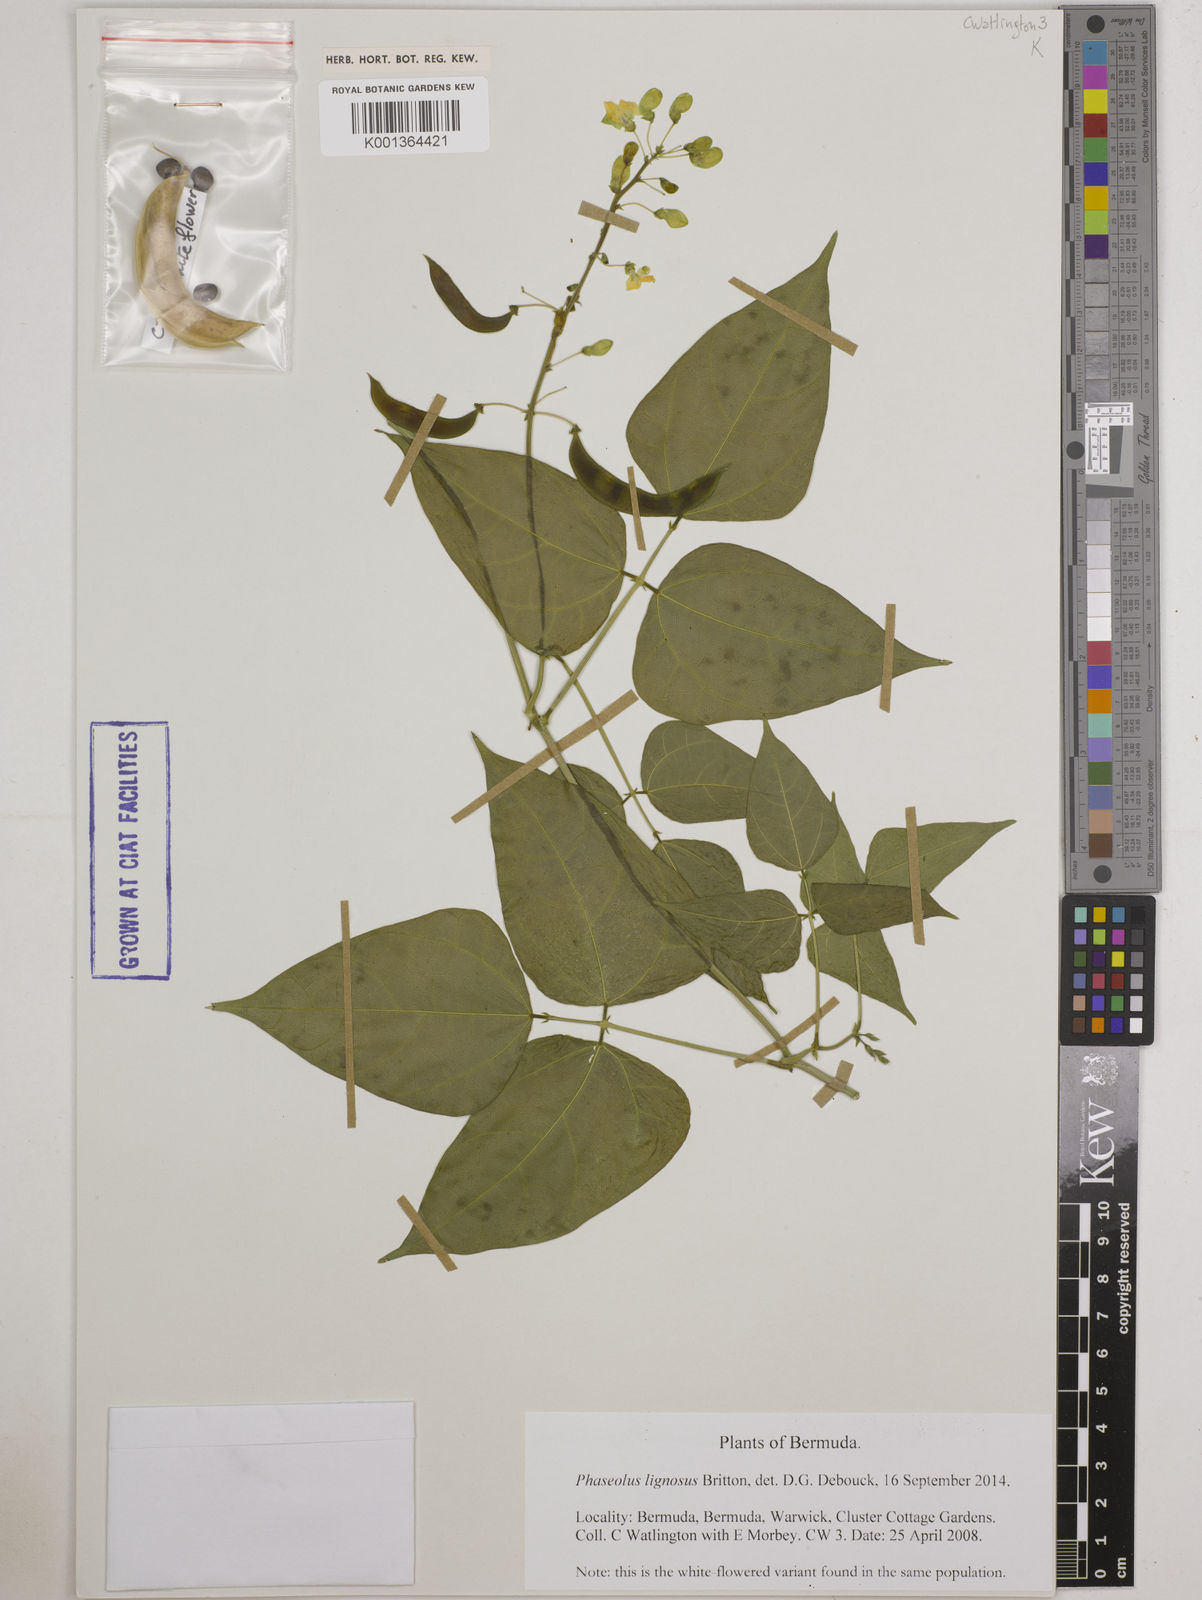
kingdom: Plantae
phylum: Tracheophyta
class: Magnoliopsida
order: Fabales
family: Fabaceae
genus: Phaseolus
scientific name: Phaseolus lignosus
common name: Bermuda bean
